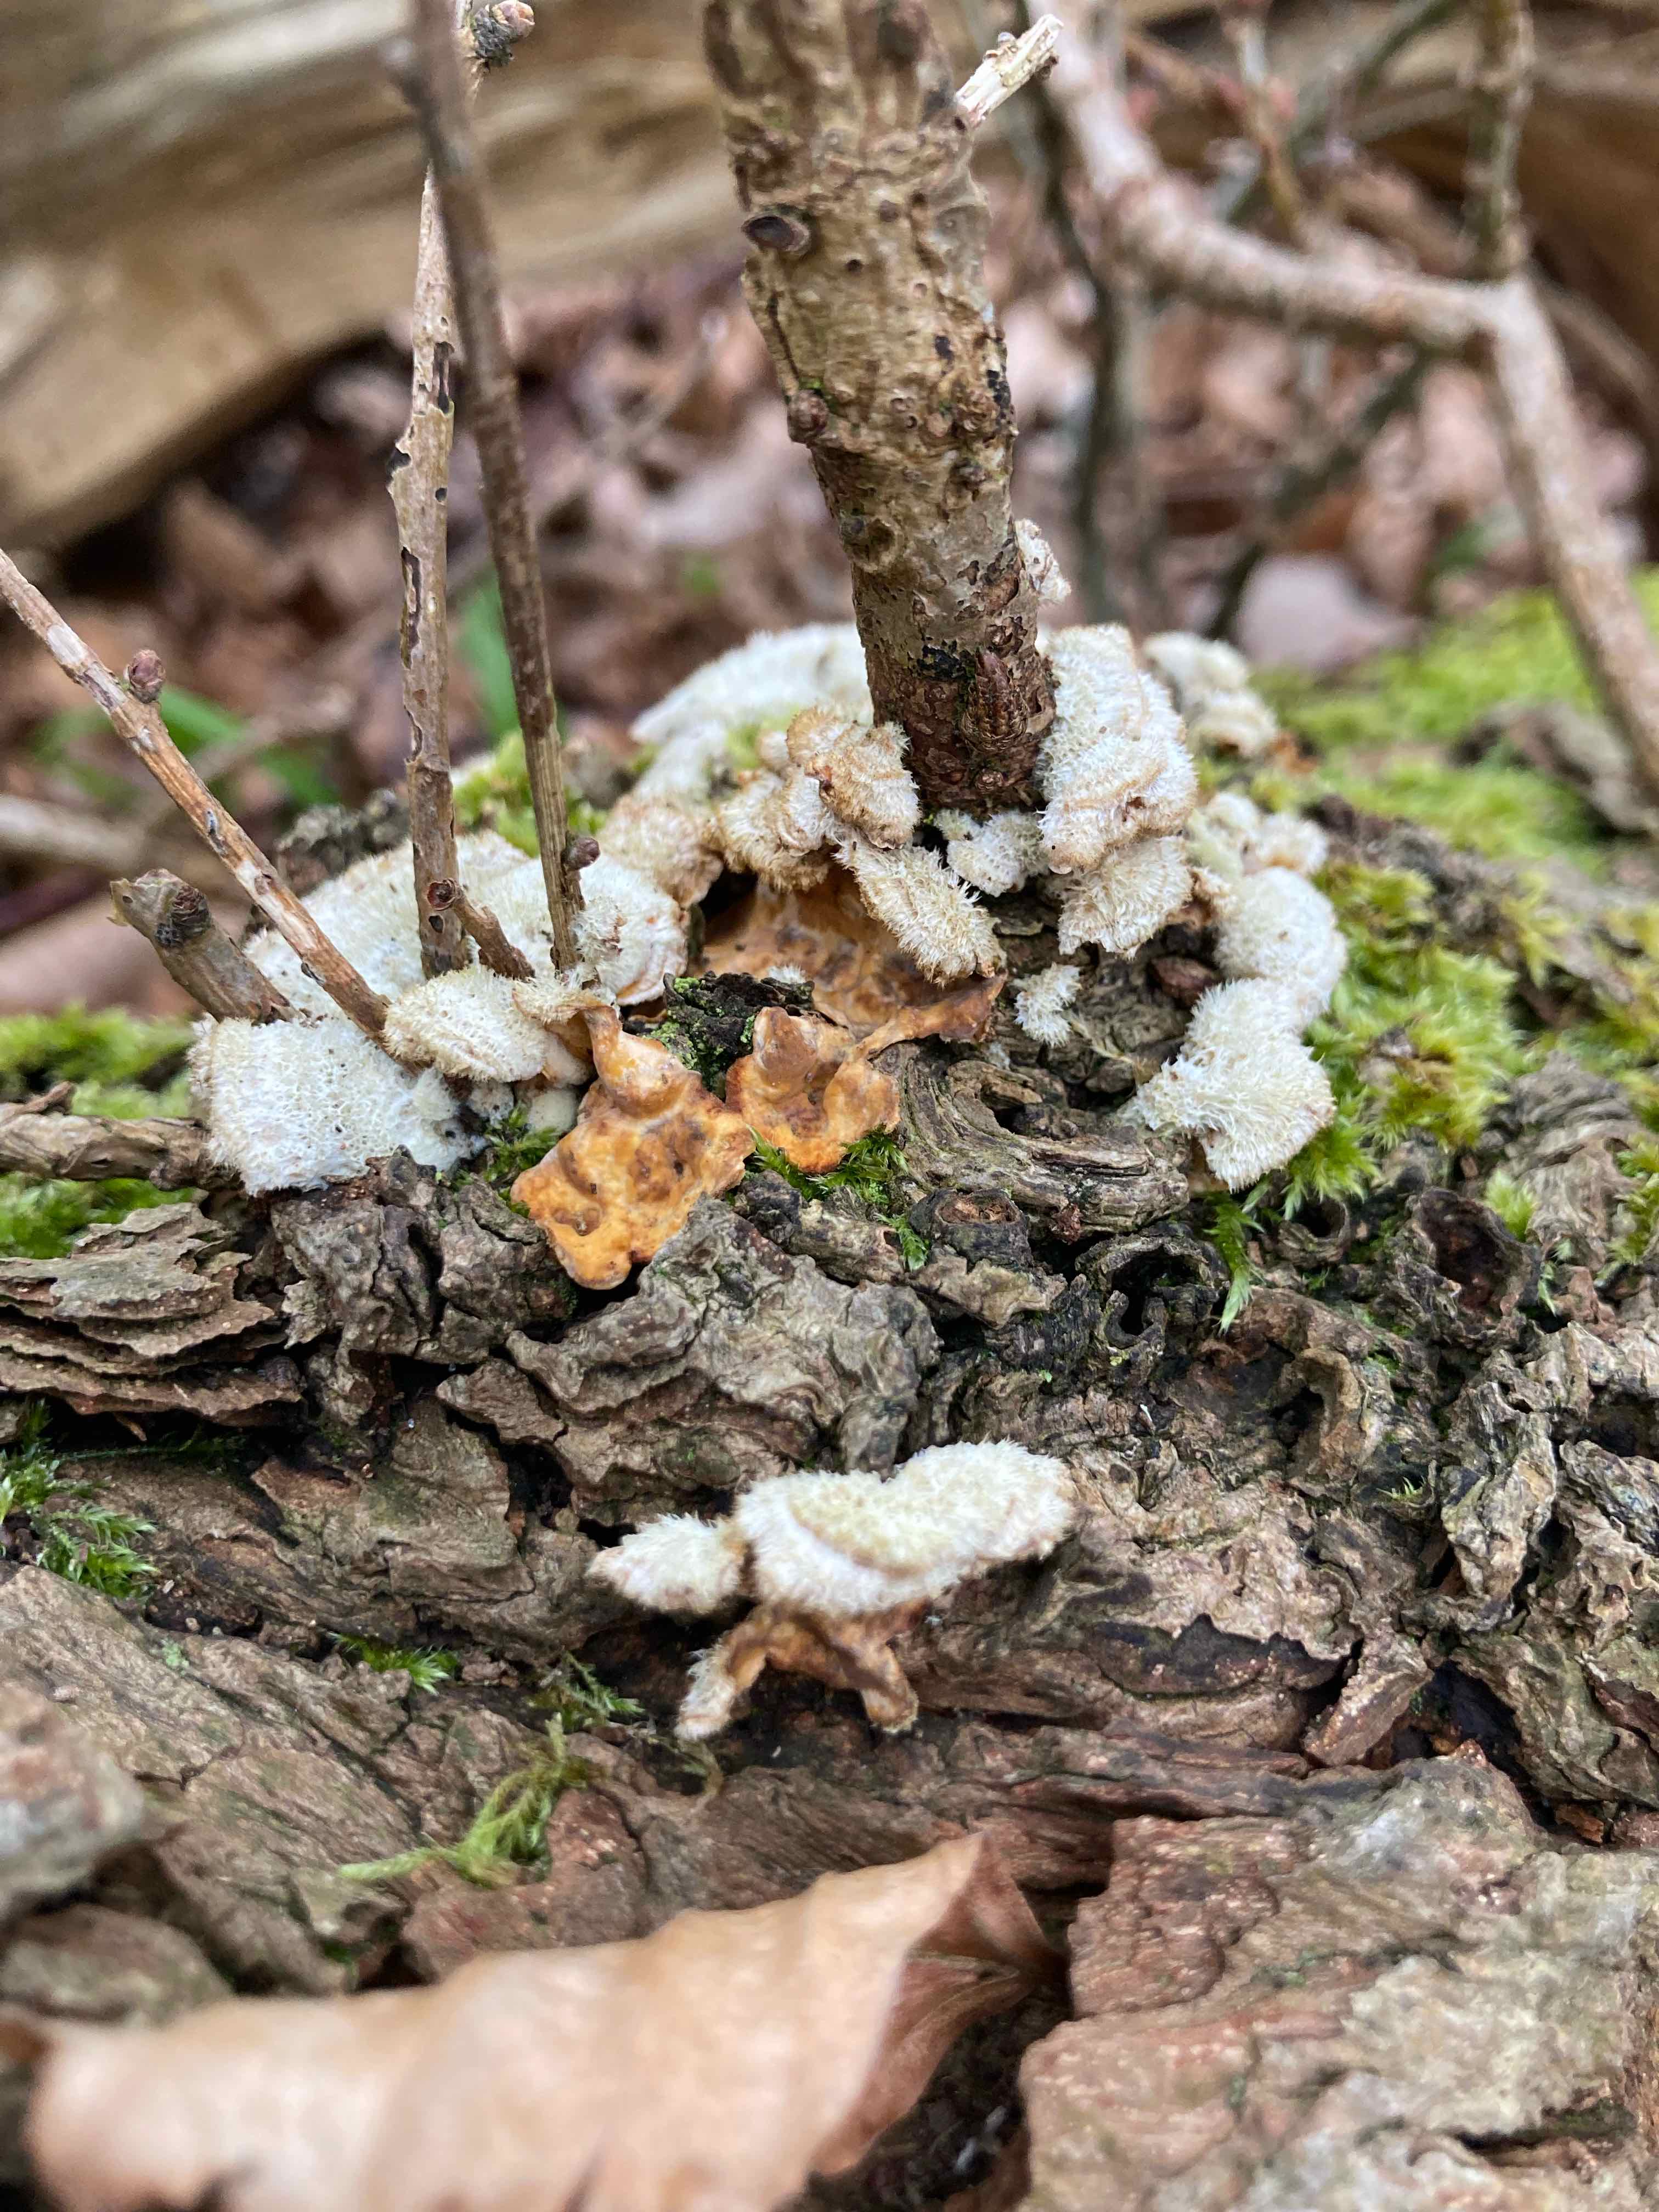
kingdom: Fungi
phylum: Basidiomycota
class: Agaricomycetes
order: Russulales
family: Stereaceae
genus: Stereum
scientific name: Stereum hirsutum
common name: håret lædersvamp
